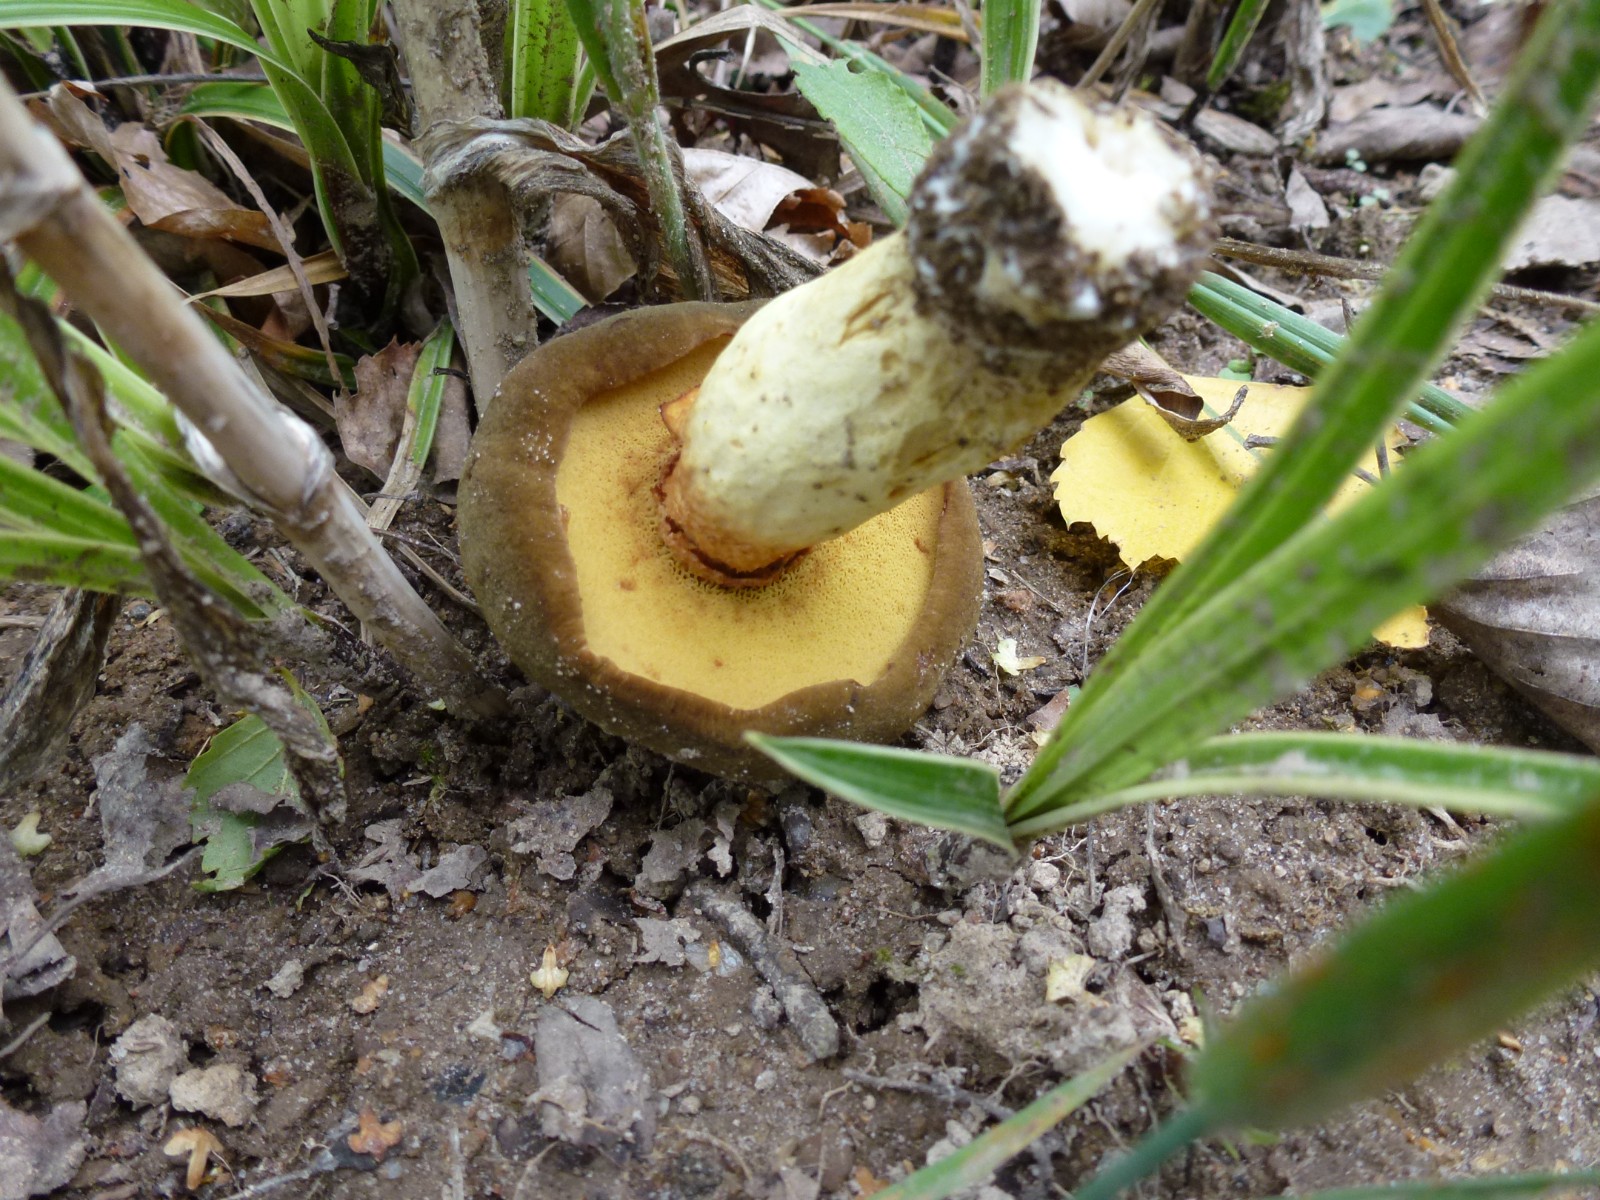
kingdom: Fungi
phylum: Basidiomycota
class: Agaricomycetes
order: Boletales
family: Boletaceae
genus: Xerocomus
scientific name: Xerocomus
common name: filtrørhat
